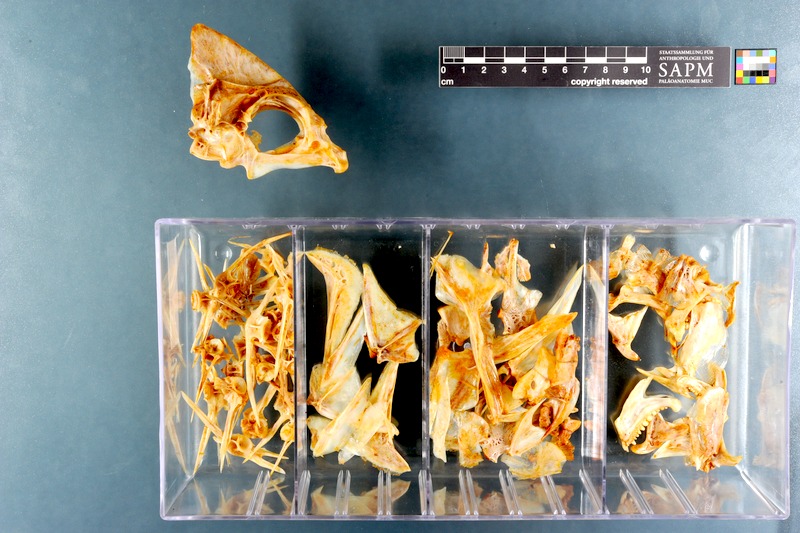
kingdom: Animalia
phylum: Chordata
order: Perciformes
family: Sparidae
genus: Chrysoblephus
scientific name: Chrysoblephus cristiceps
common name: Dageraad
